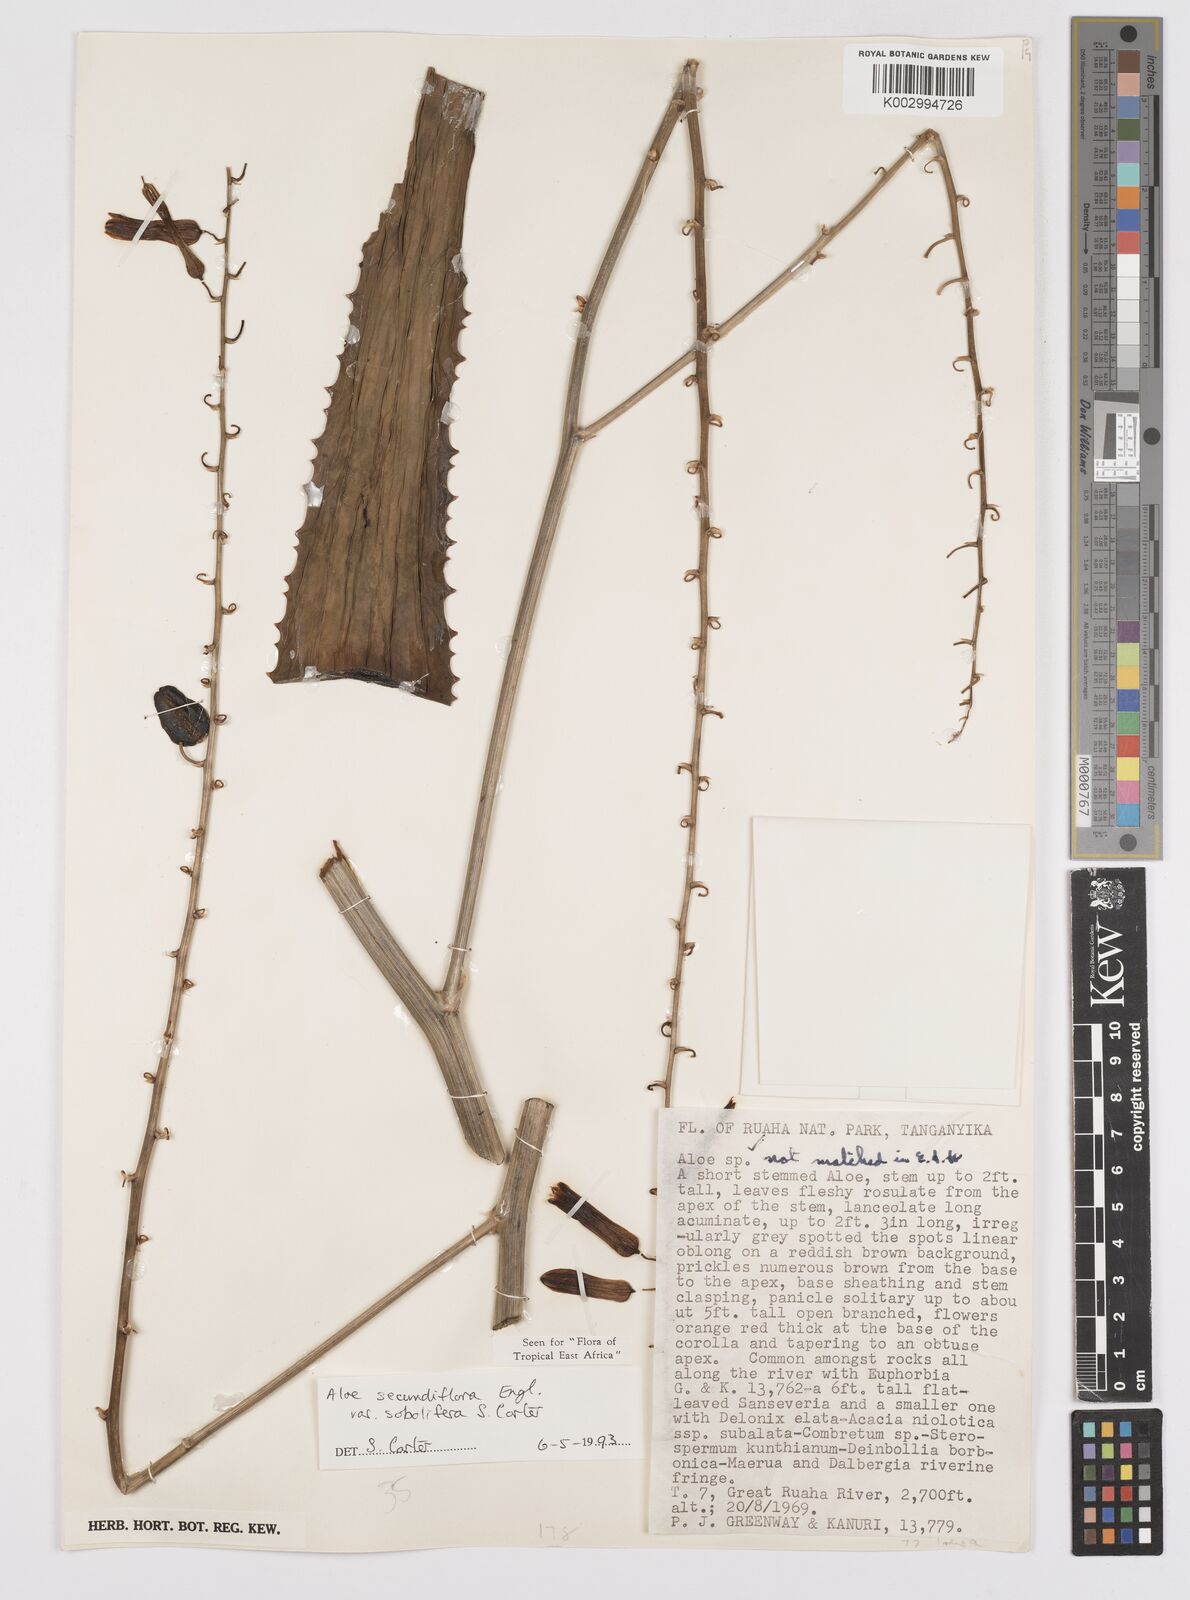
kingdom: Plantae
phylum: Tracheophyta
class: Liliopsida
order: Asparagales
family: Asphodelaceae
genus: Aloe
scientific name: Aloe sobolifera
